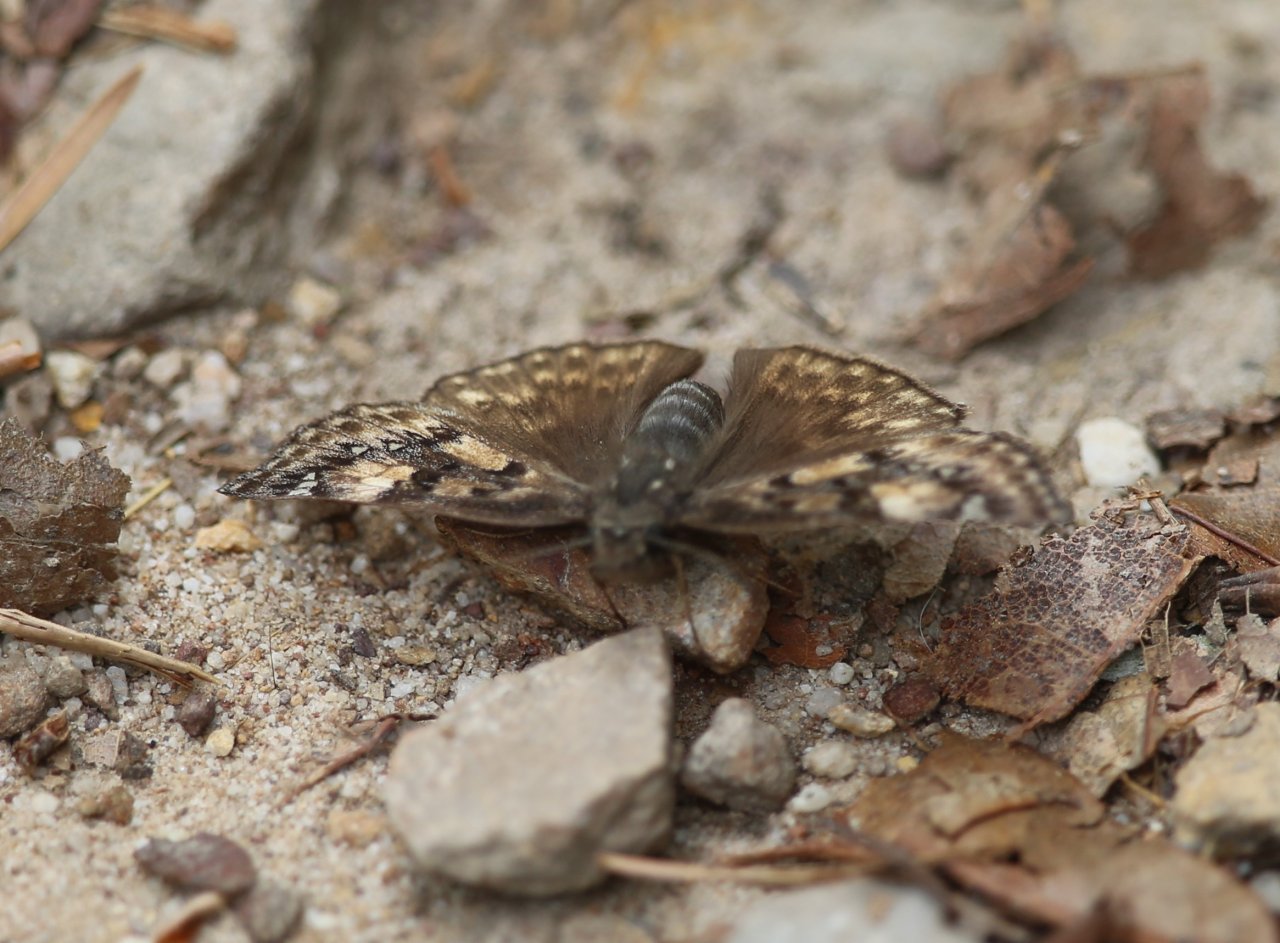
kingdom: Animalia
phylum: Arthropoda
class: Insecta
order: Lepidoptera
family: Hesperiidae
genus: Gesta
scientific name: Gesta
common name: Horace's Duskywing
